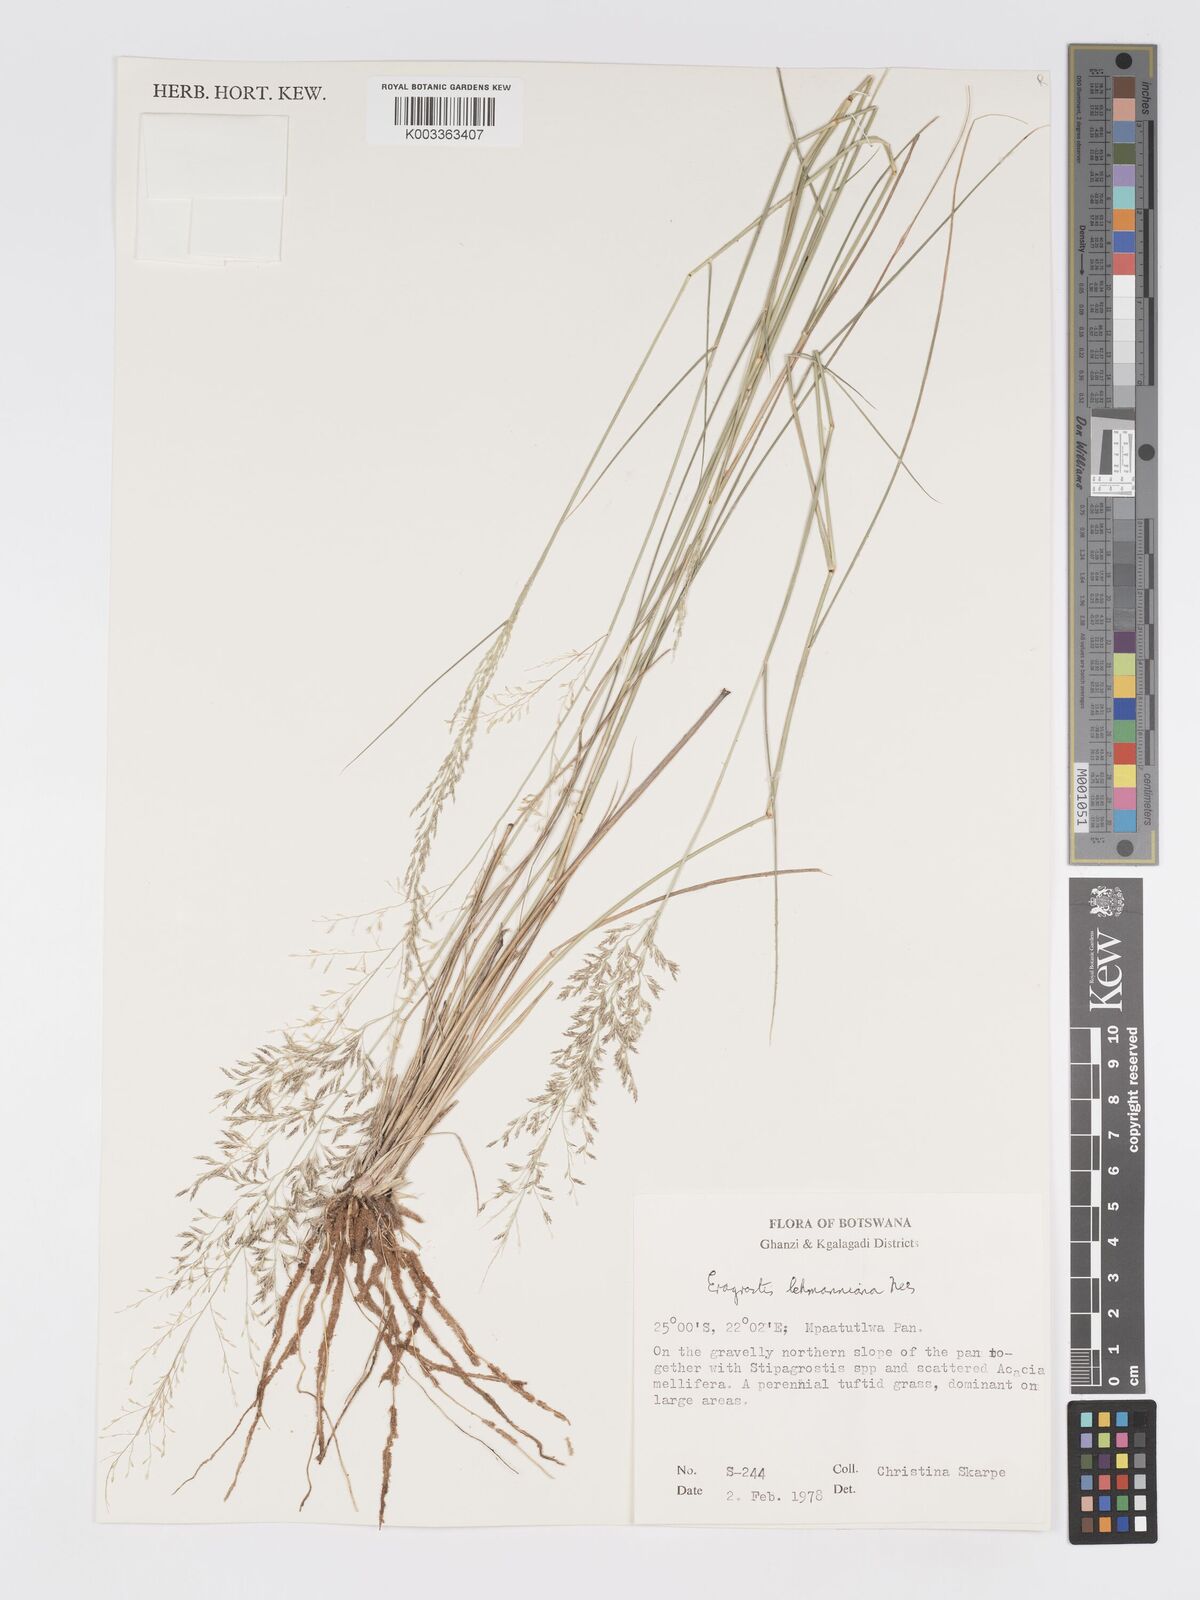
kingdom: Plantae
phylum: Tracheophyta
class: Liliopsida
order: Poales
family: Poaceae
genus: Eragrostis
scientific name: Eragrostis lehmanniana
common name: Lehmann lovegrass
